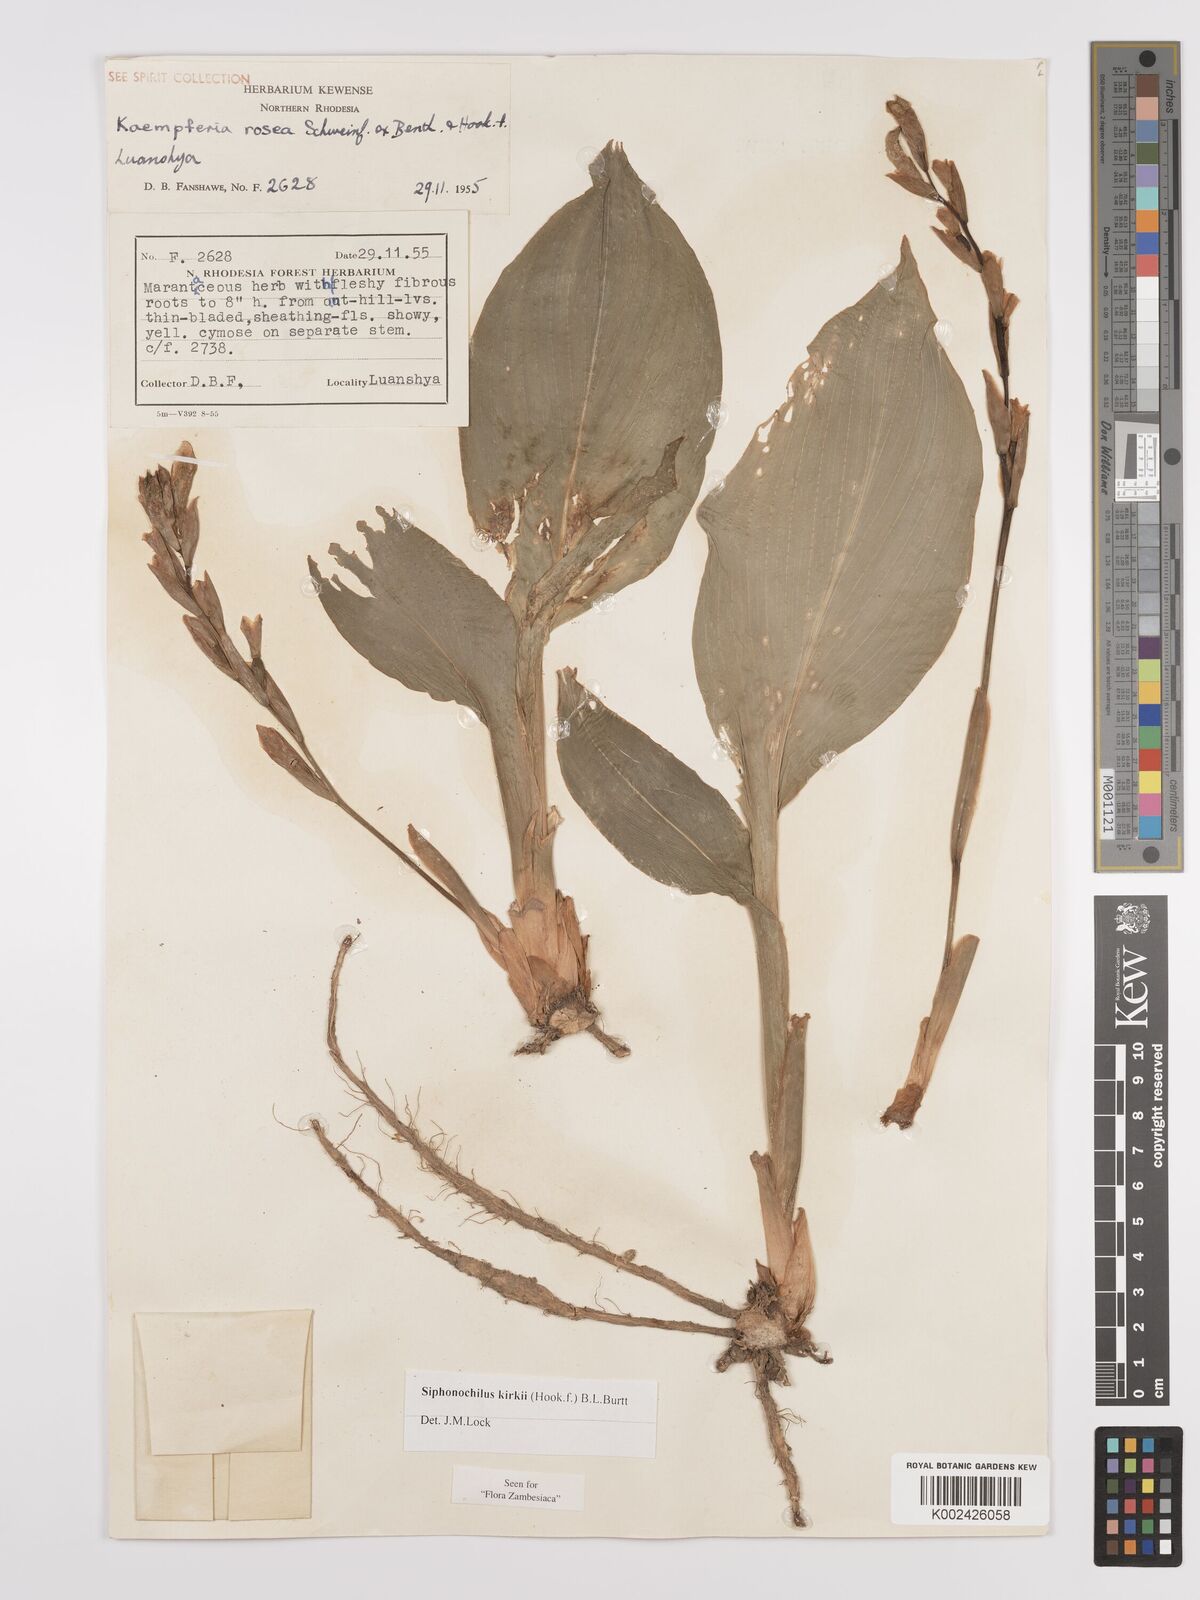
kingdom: Plantae
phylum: Tracheophyta
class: Liliopsida
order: Zingiberales
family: Zingiberaceae
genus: Siphonochilus
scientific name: Siphonochilus kirkii
